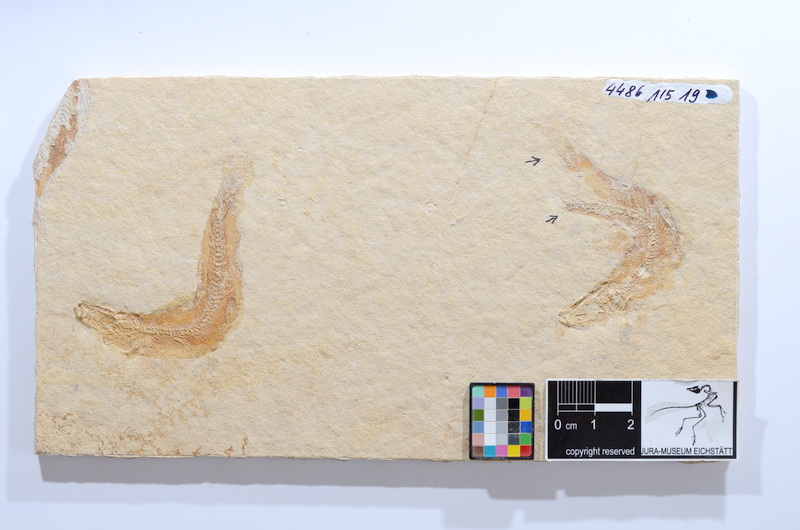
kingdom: Animalia
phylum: Chordata
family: Ascalaboidae
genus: Tharsis
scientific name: Tharsis dubius
